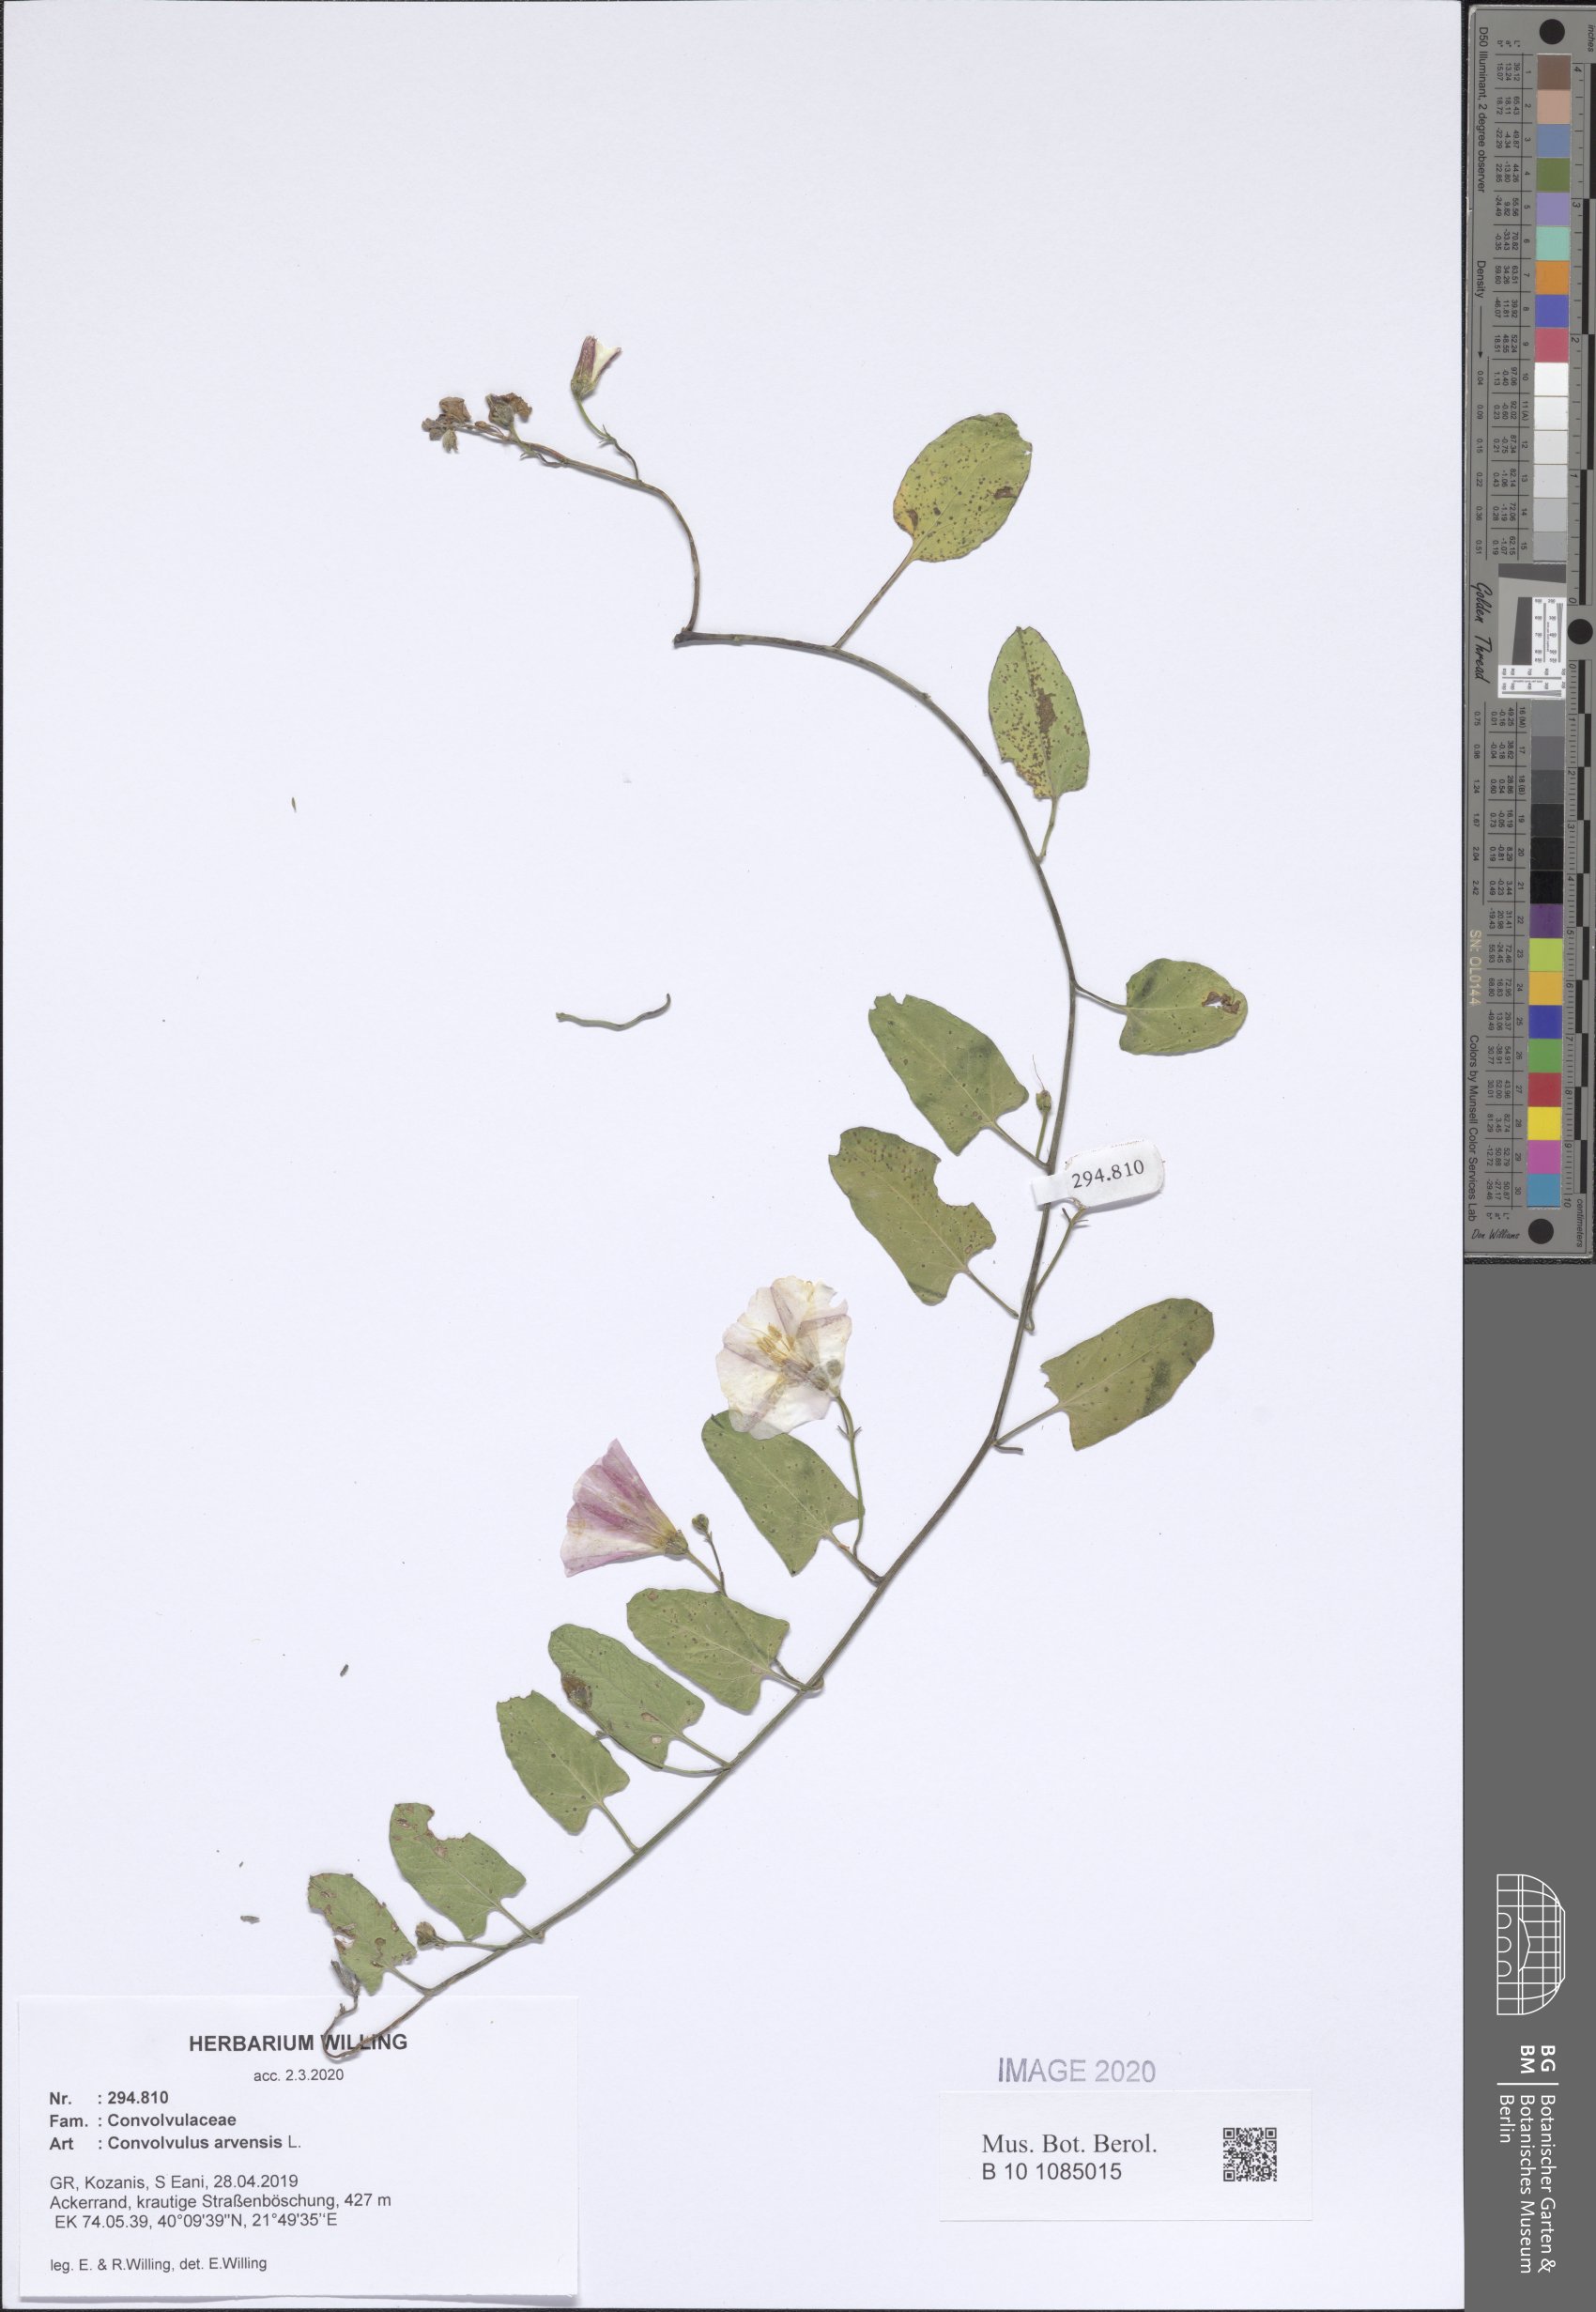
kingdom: Plantae
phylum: Tracheophyta
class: Magnoliopsida
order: Solanales
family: Convolvulaceae
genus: Convolvulus
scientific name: Convolvulus arvensis
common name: Field bindweed
